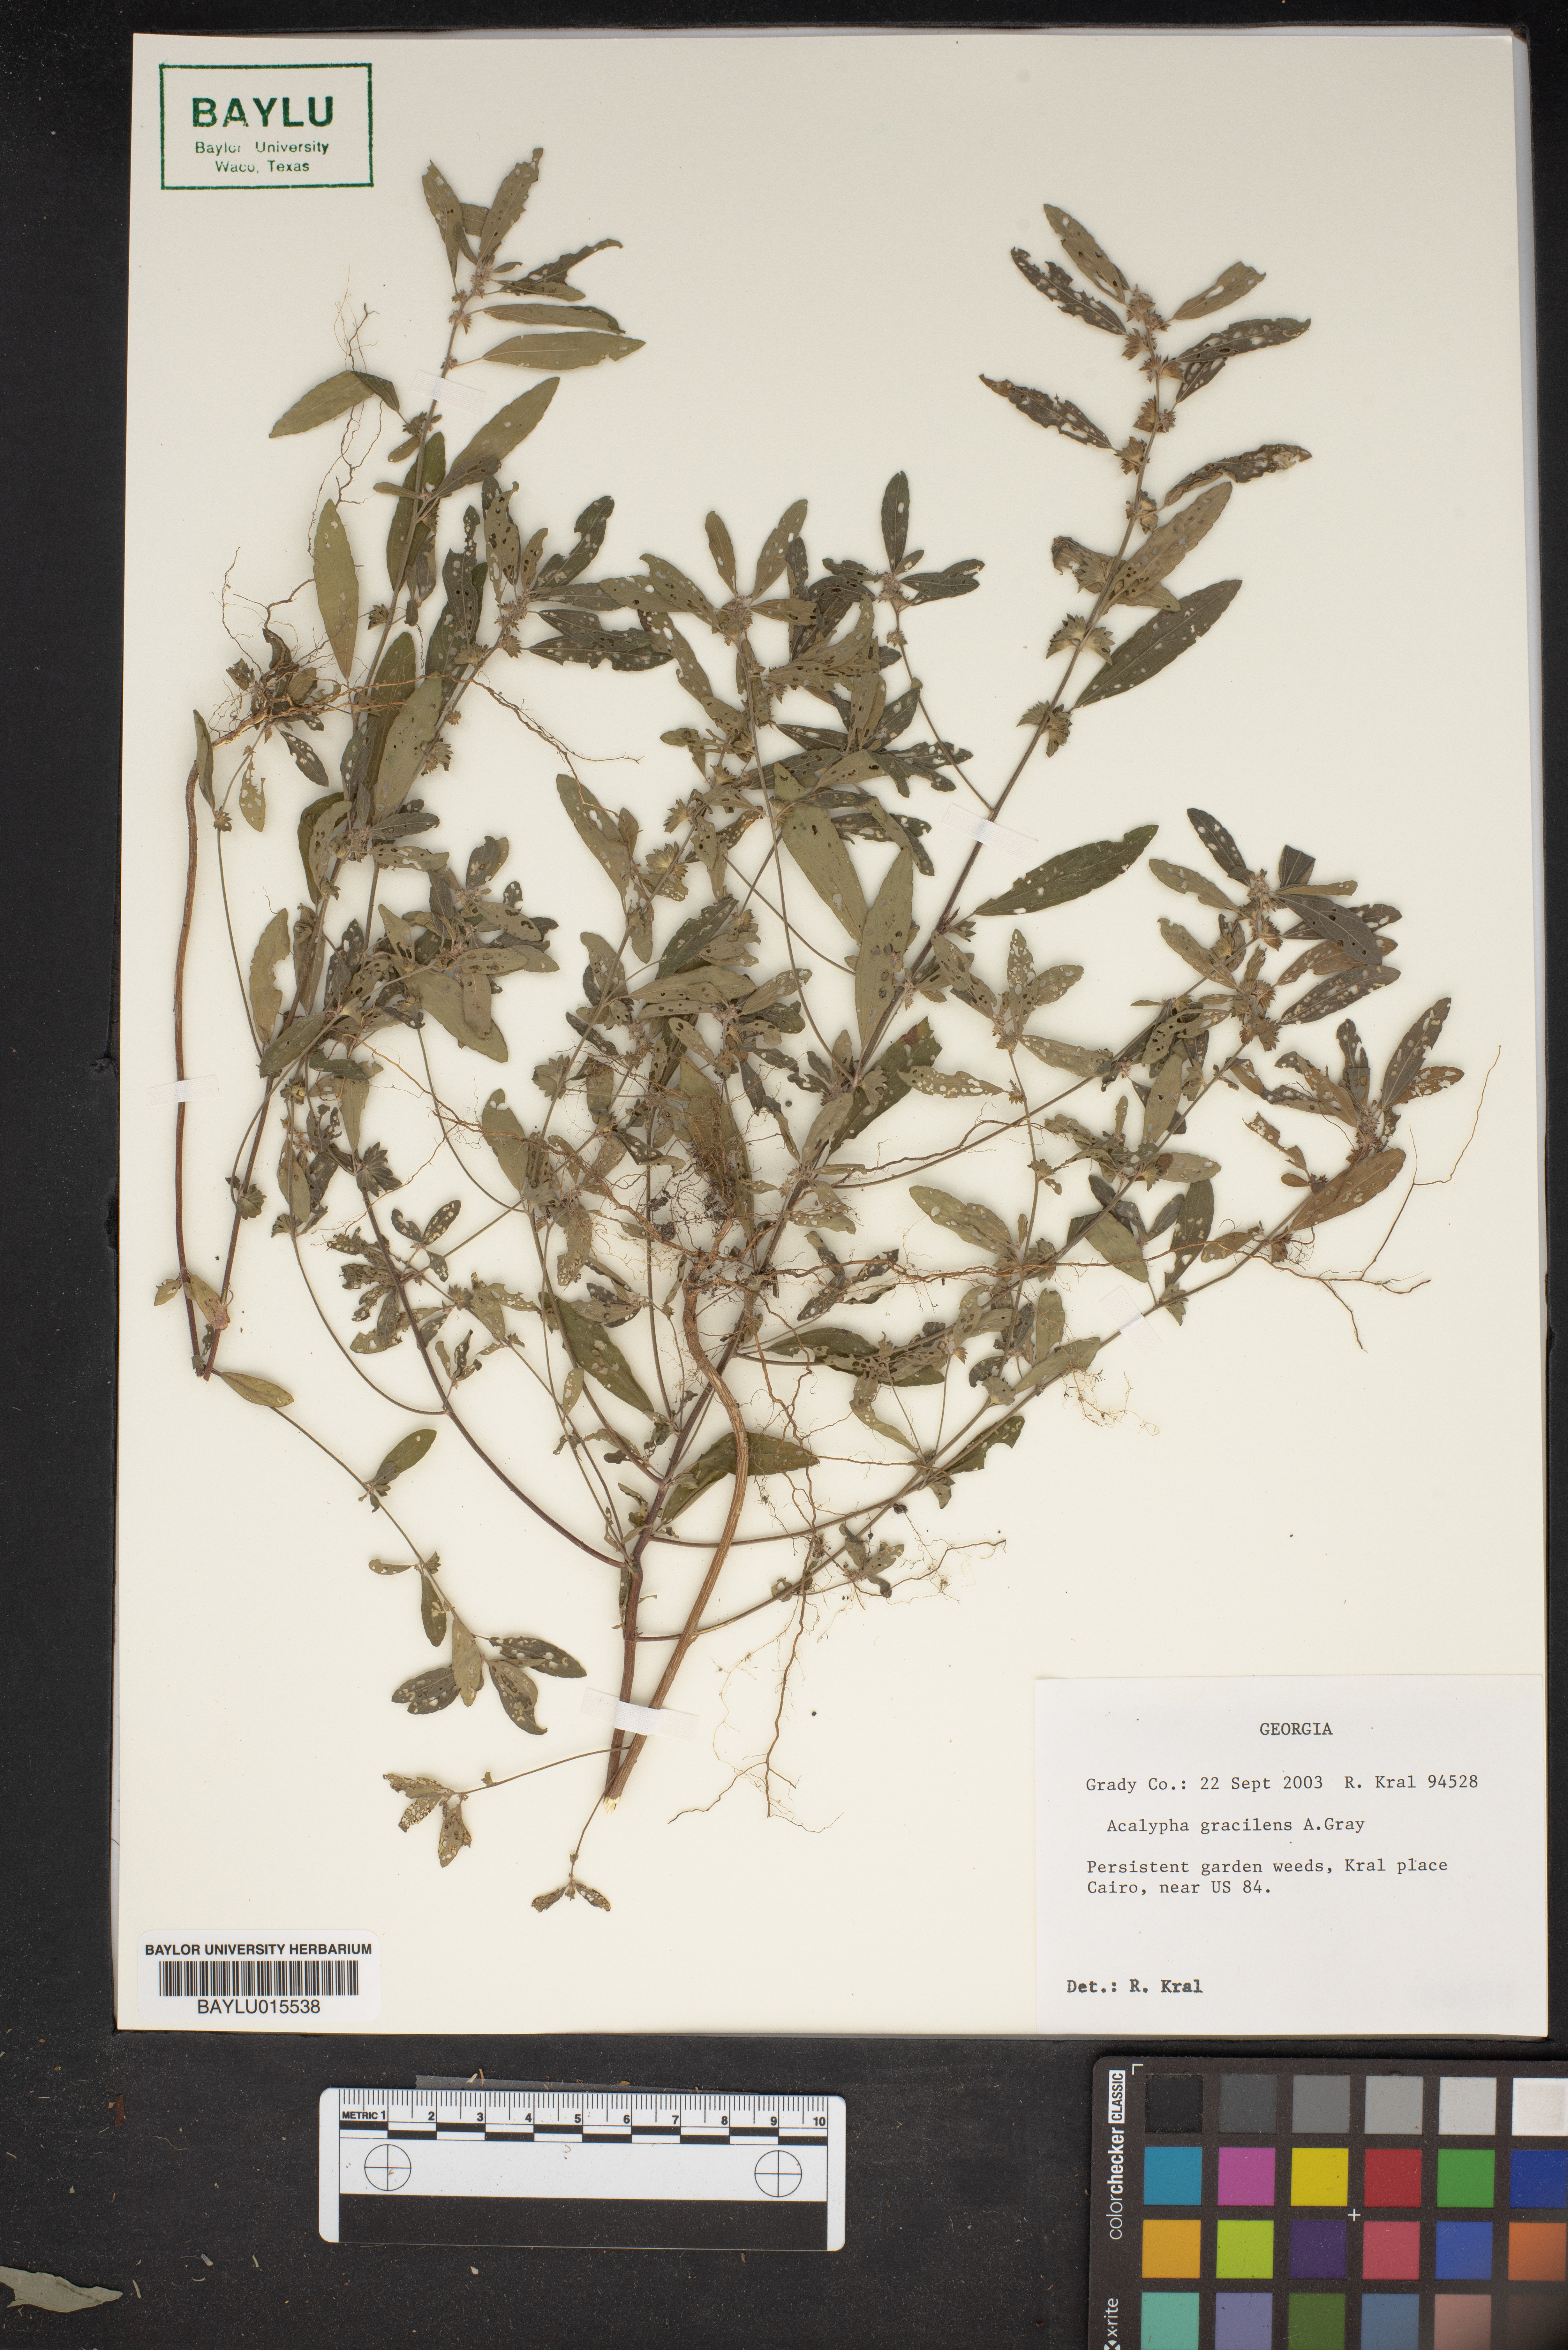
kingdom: Plantae
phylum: Tracheophyta
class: Magnoliopsida
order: Malpighiales
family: Euphorbiaceae
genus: Acalypha
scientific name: Acalypha gracilens
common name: Slender three-seeded mercury
